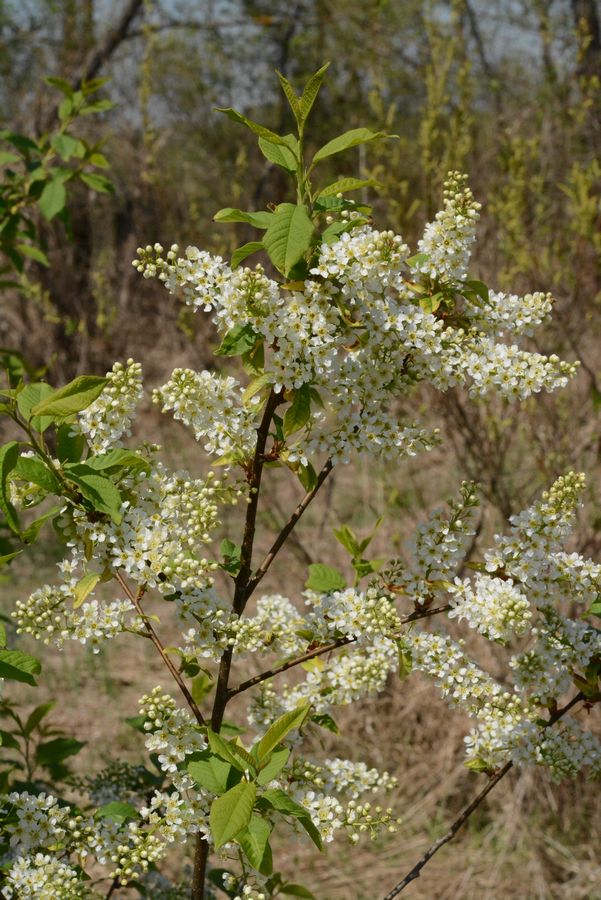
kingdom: Plantae
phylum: Tracheophyta
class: Magnoliopsida
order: Rosales
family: Rosaceae
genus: Prunus
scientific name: Prunus padus
